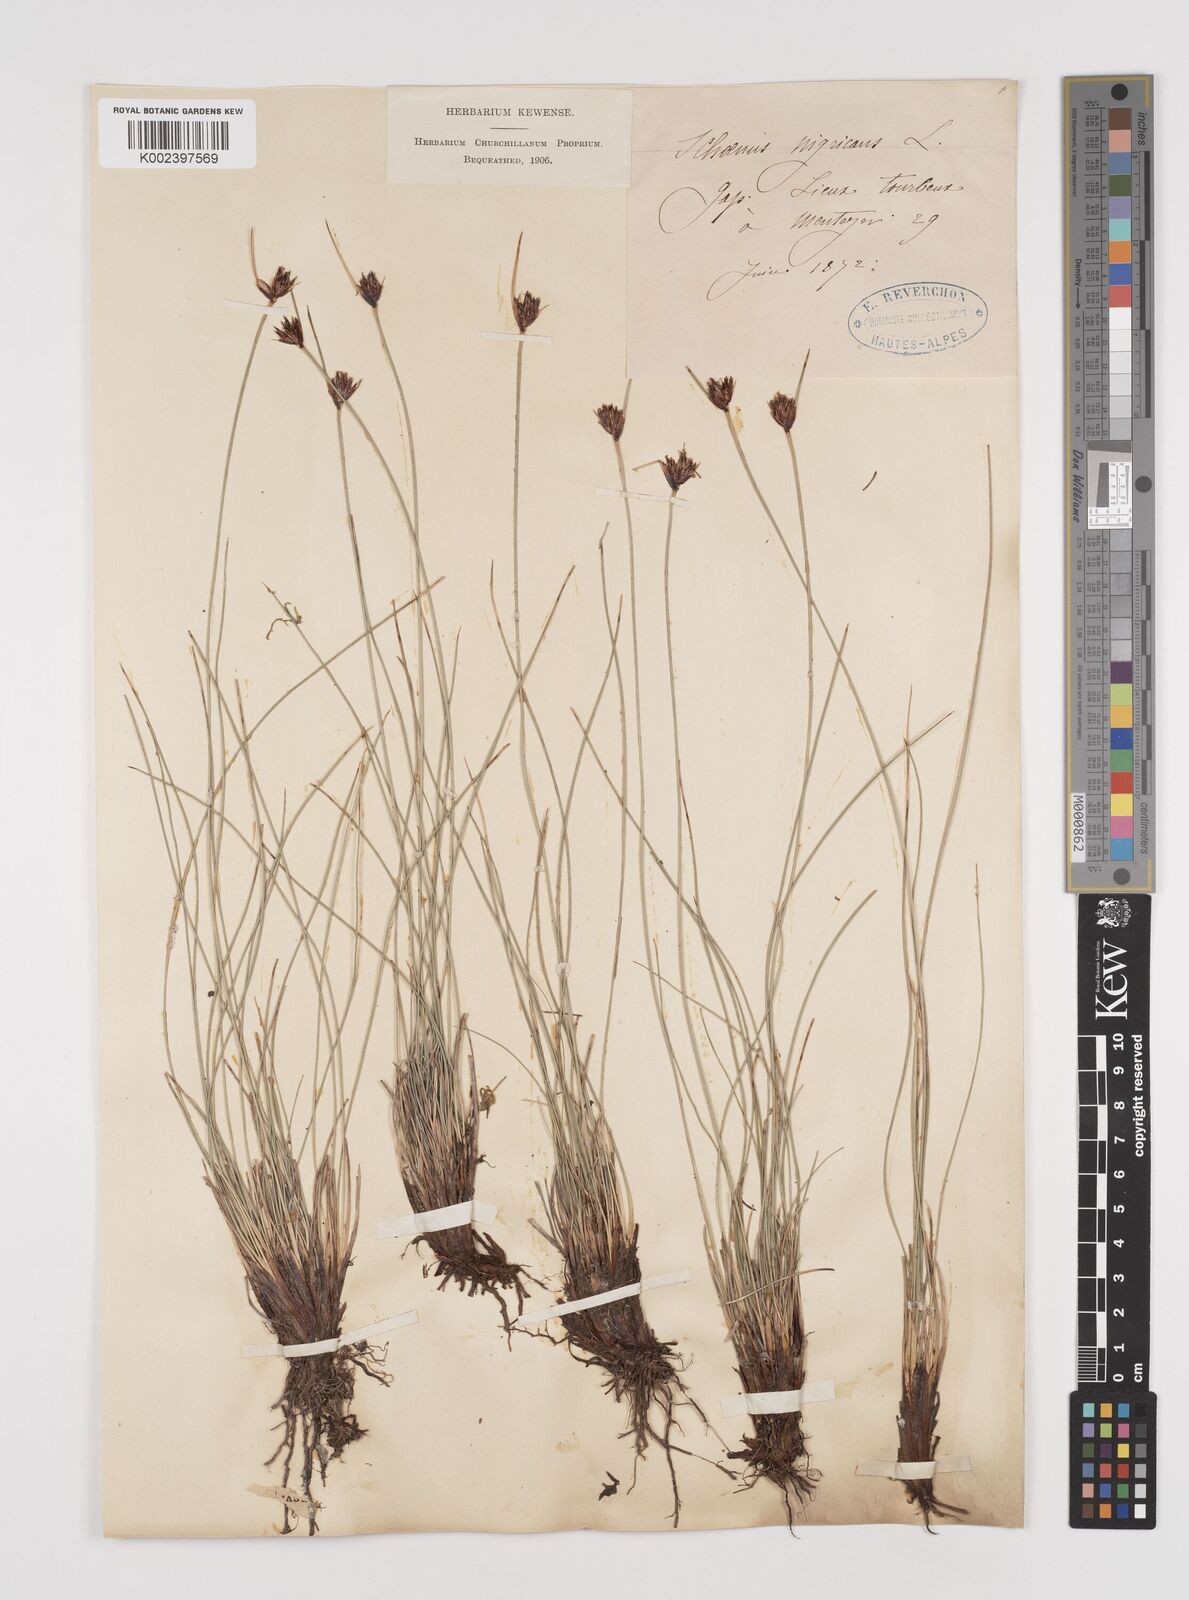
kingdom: Plantae
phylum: Tracheophyta
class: Liliopsida
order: Poales
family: Cyperaceae
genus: Schoenus
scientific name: Schoenus nigricans
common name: Black bog-rush
